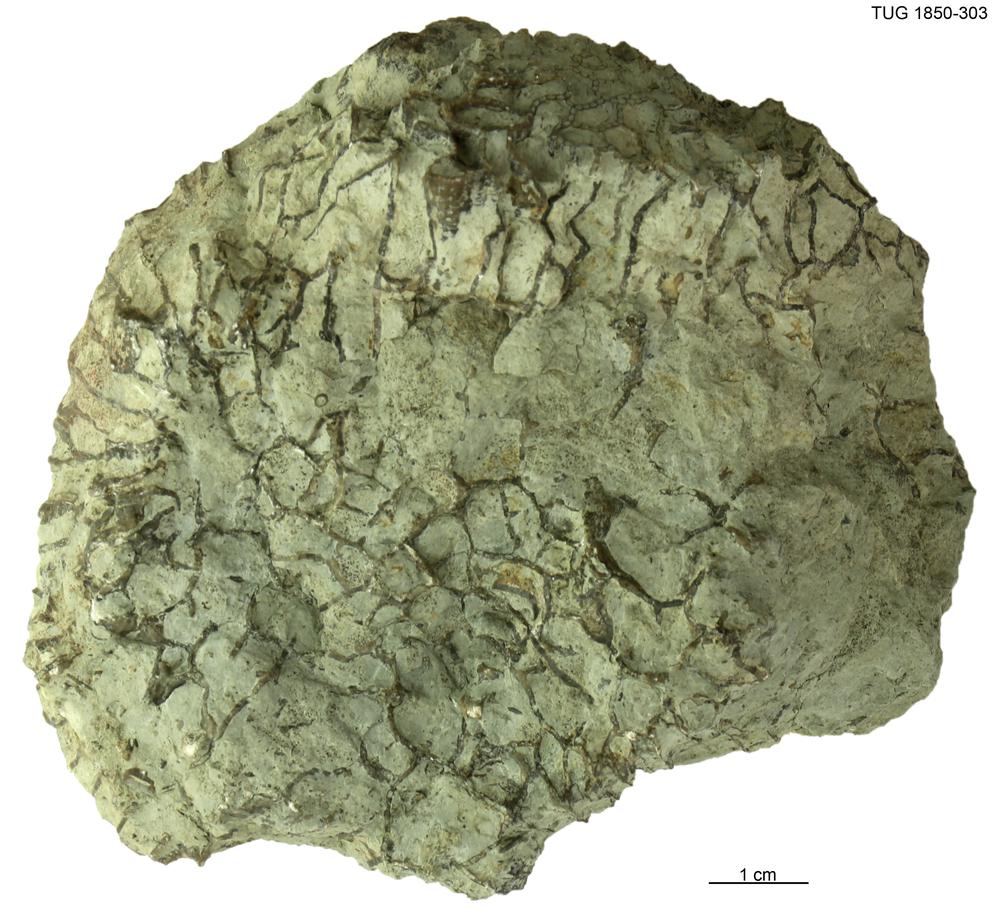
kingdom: Animalia
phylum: Cnidaria
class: Anthozoa
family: Halysitidae
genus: Halysites
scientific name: Halysites
